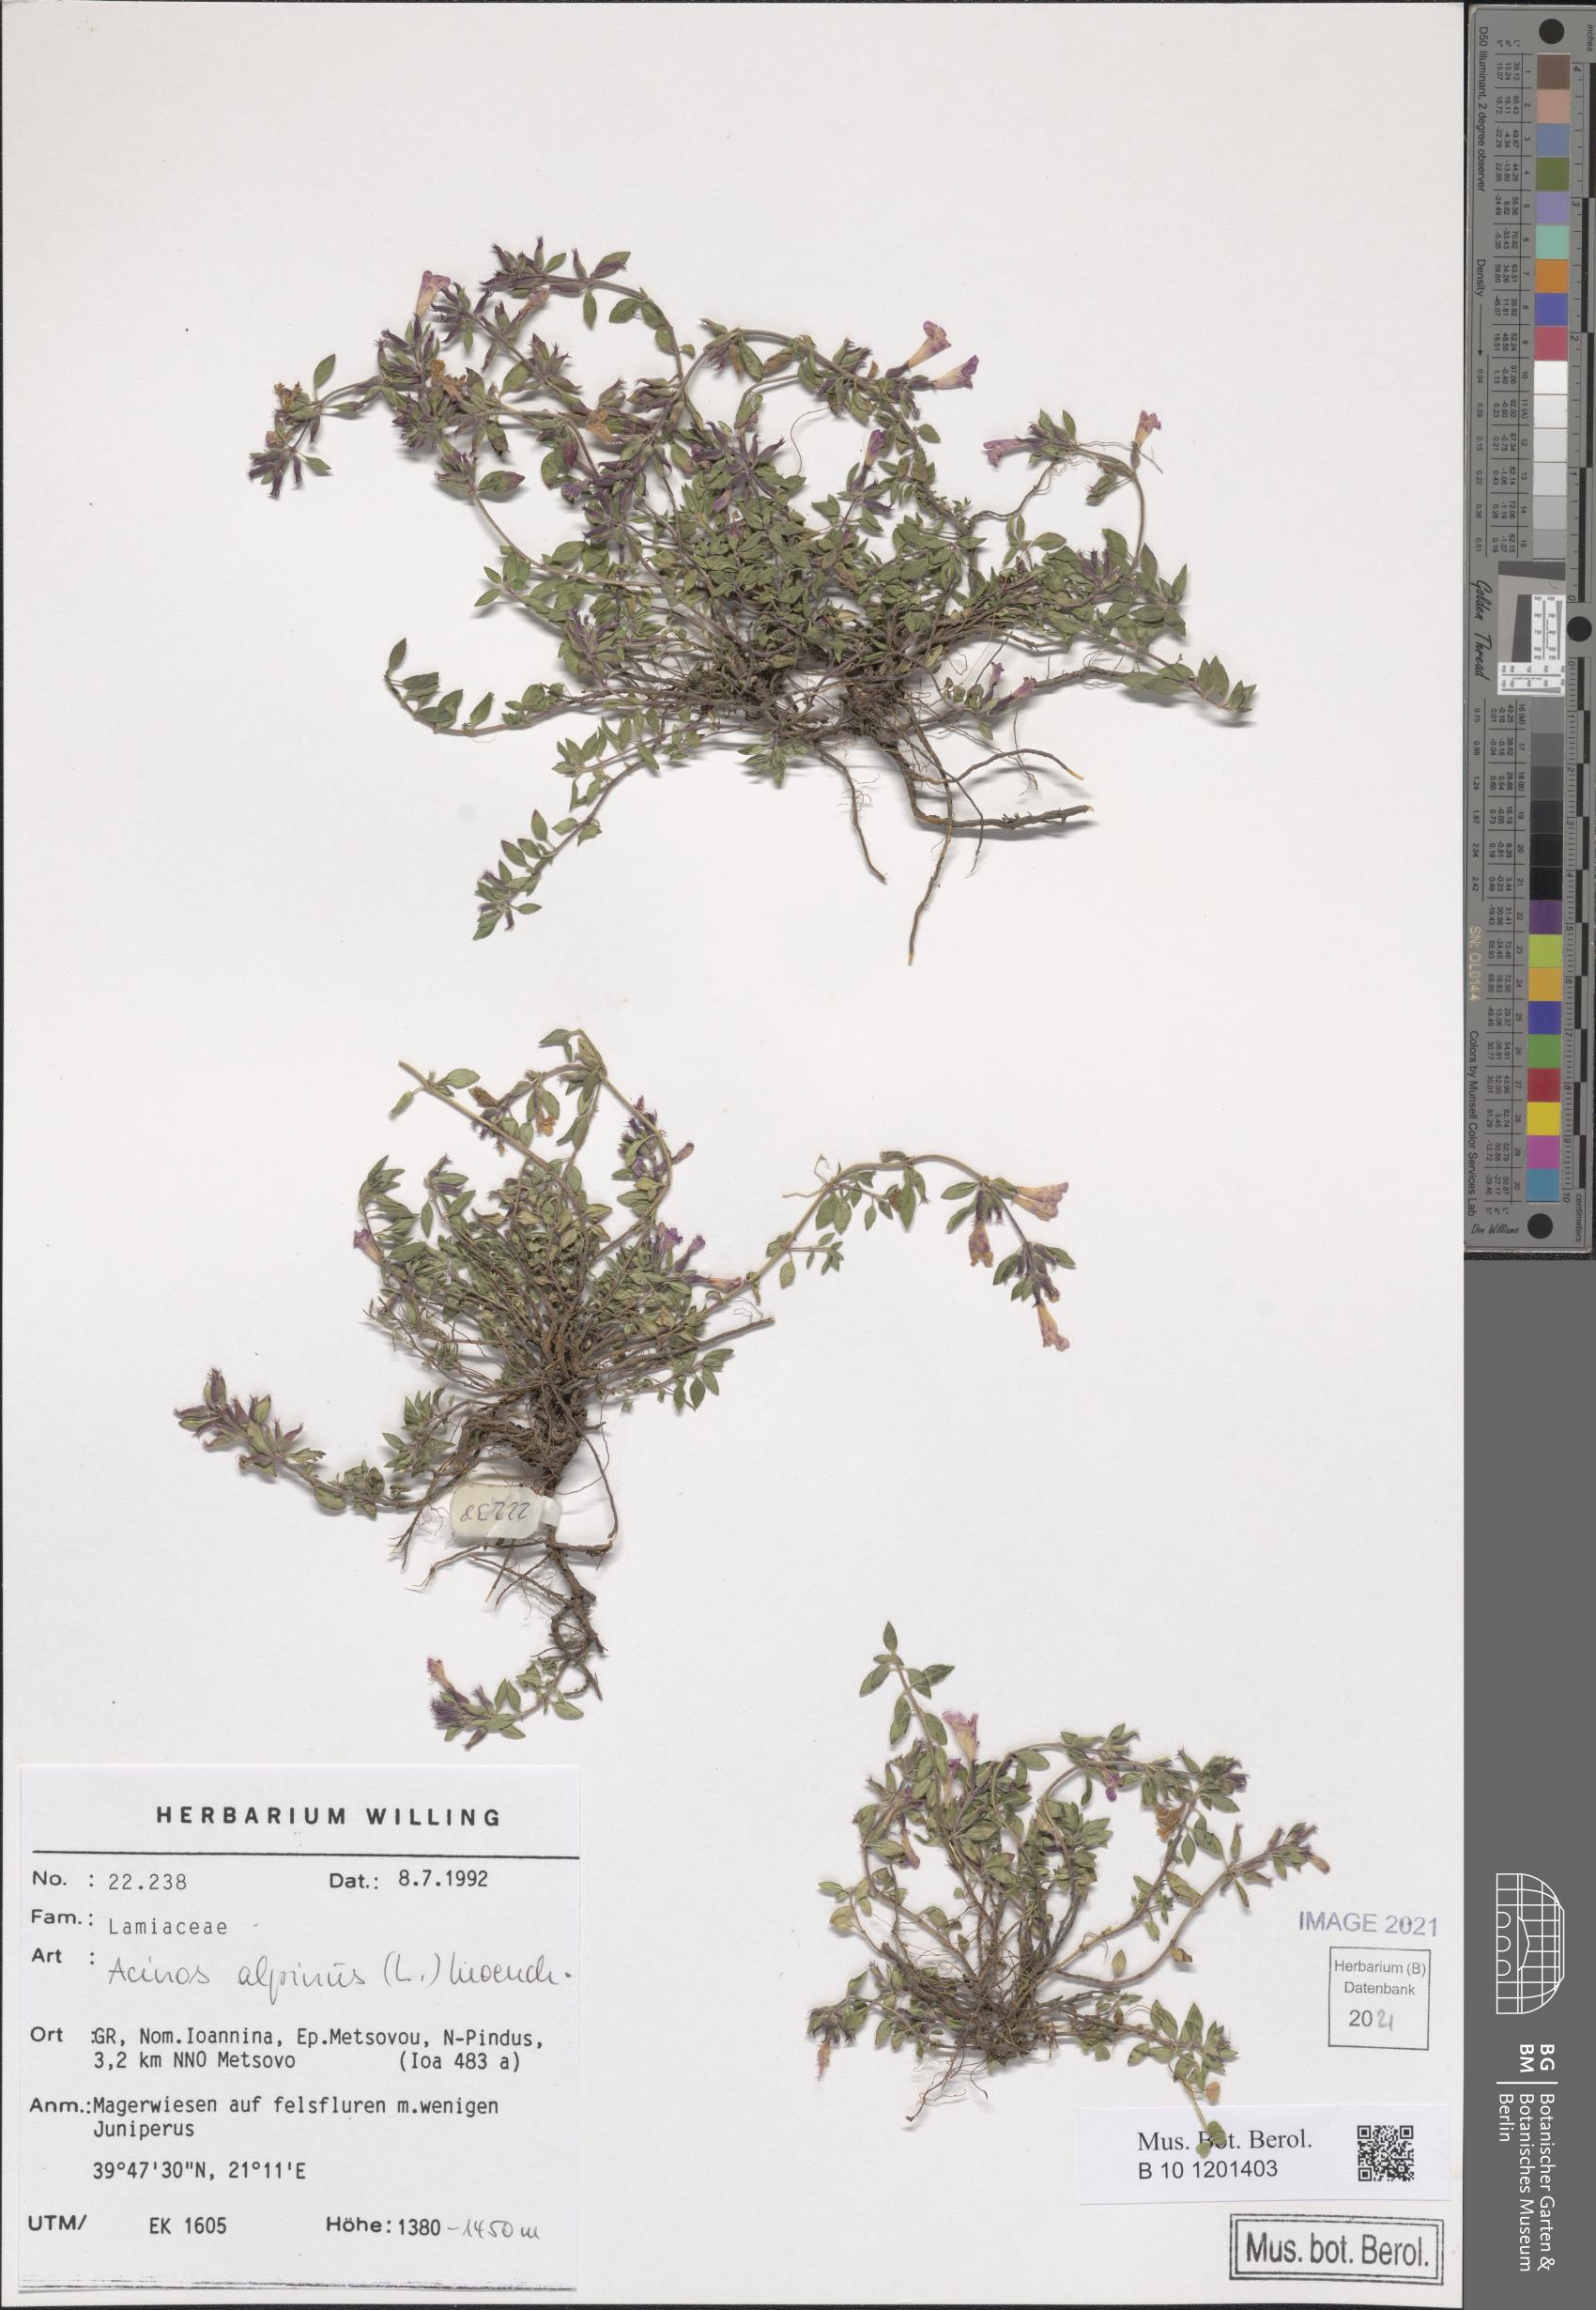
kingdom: Plantae
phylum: Tracheophyta
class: Magnoliopsida
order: Lamiales
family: Lamiaceae
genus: Clinopodium
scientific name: Clinopodium alpinum
